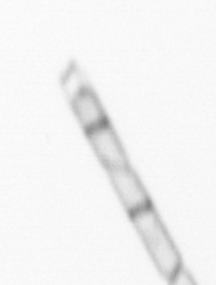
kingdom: Chromista
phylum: Ochrophyta
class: Bacillariophyceae
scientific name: Bacillariophyceae
